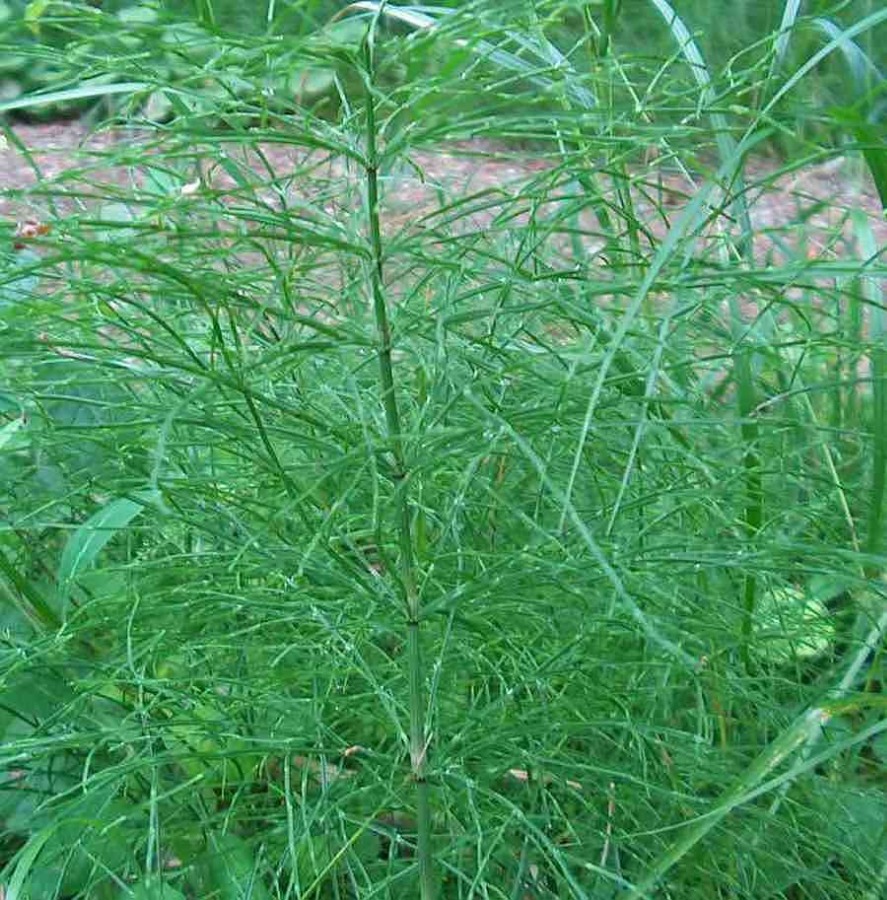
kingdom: Plantae
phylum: Tracheophyta
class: Polypodiopsida
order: Equisetales
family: Equisetaceae
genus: Equisetum
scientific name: Equisetum pratense
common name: Lund-padderok
